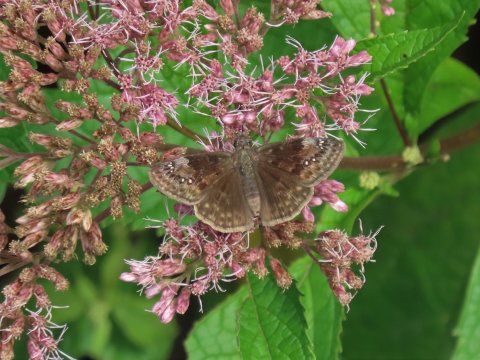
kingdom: Animalia
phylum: Arthropoda
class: Insecta
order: Lepidoptera
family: Hesperiidae
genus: Gesta
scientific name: Gesta
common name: Wild Indigo Duskywing
